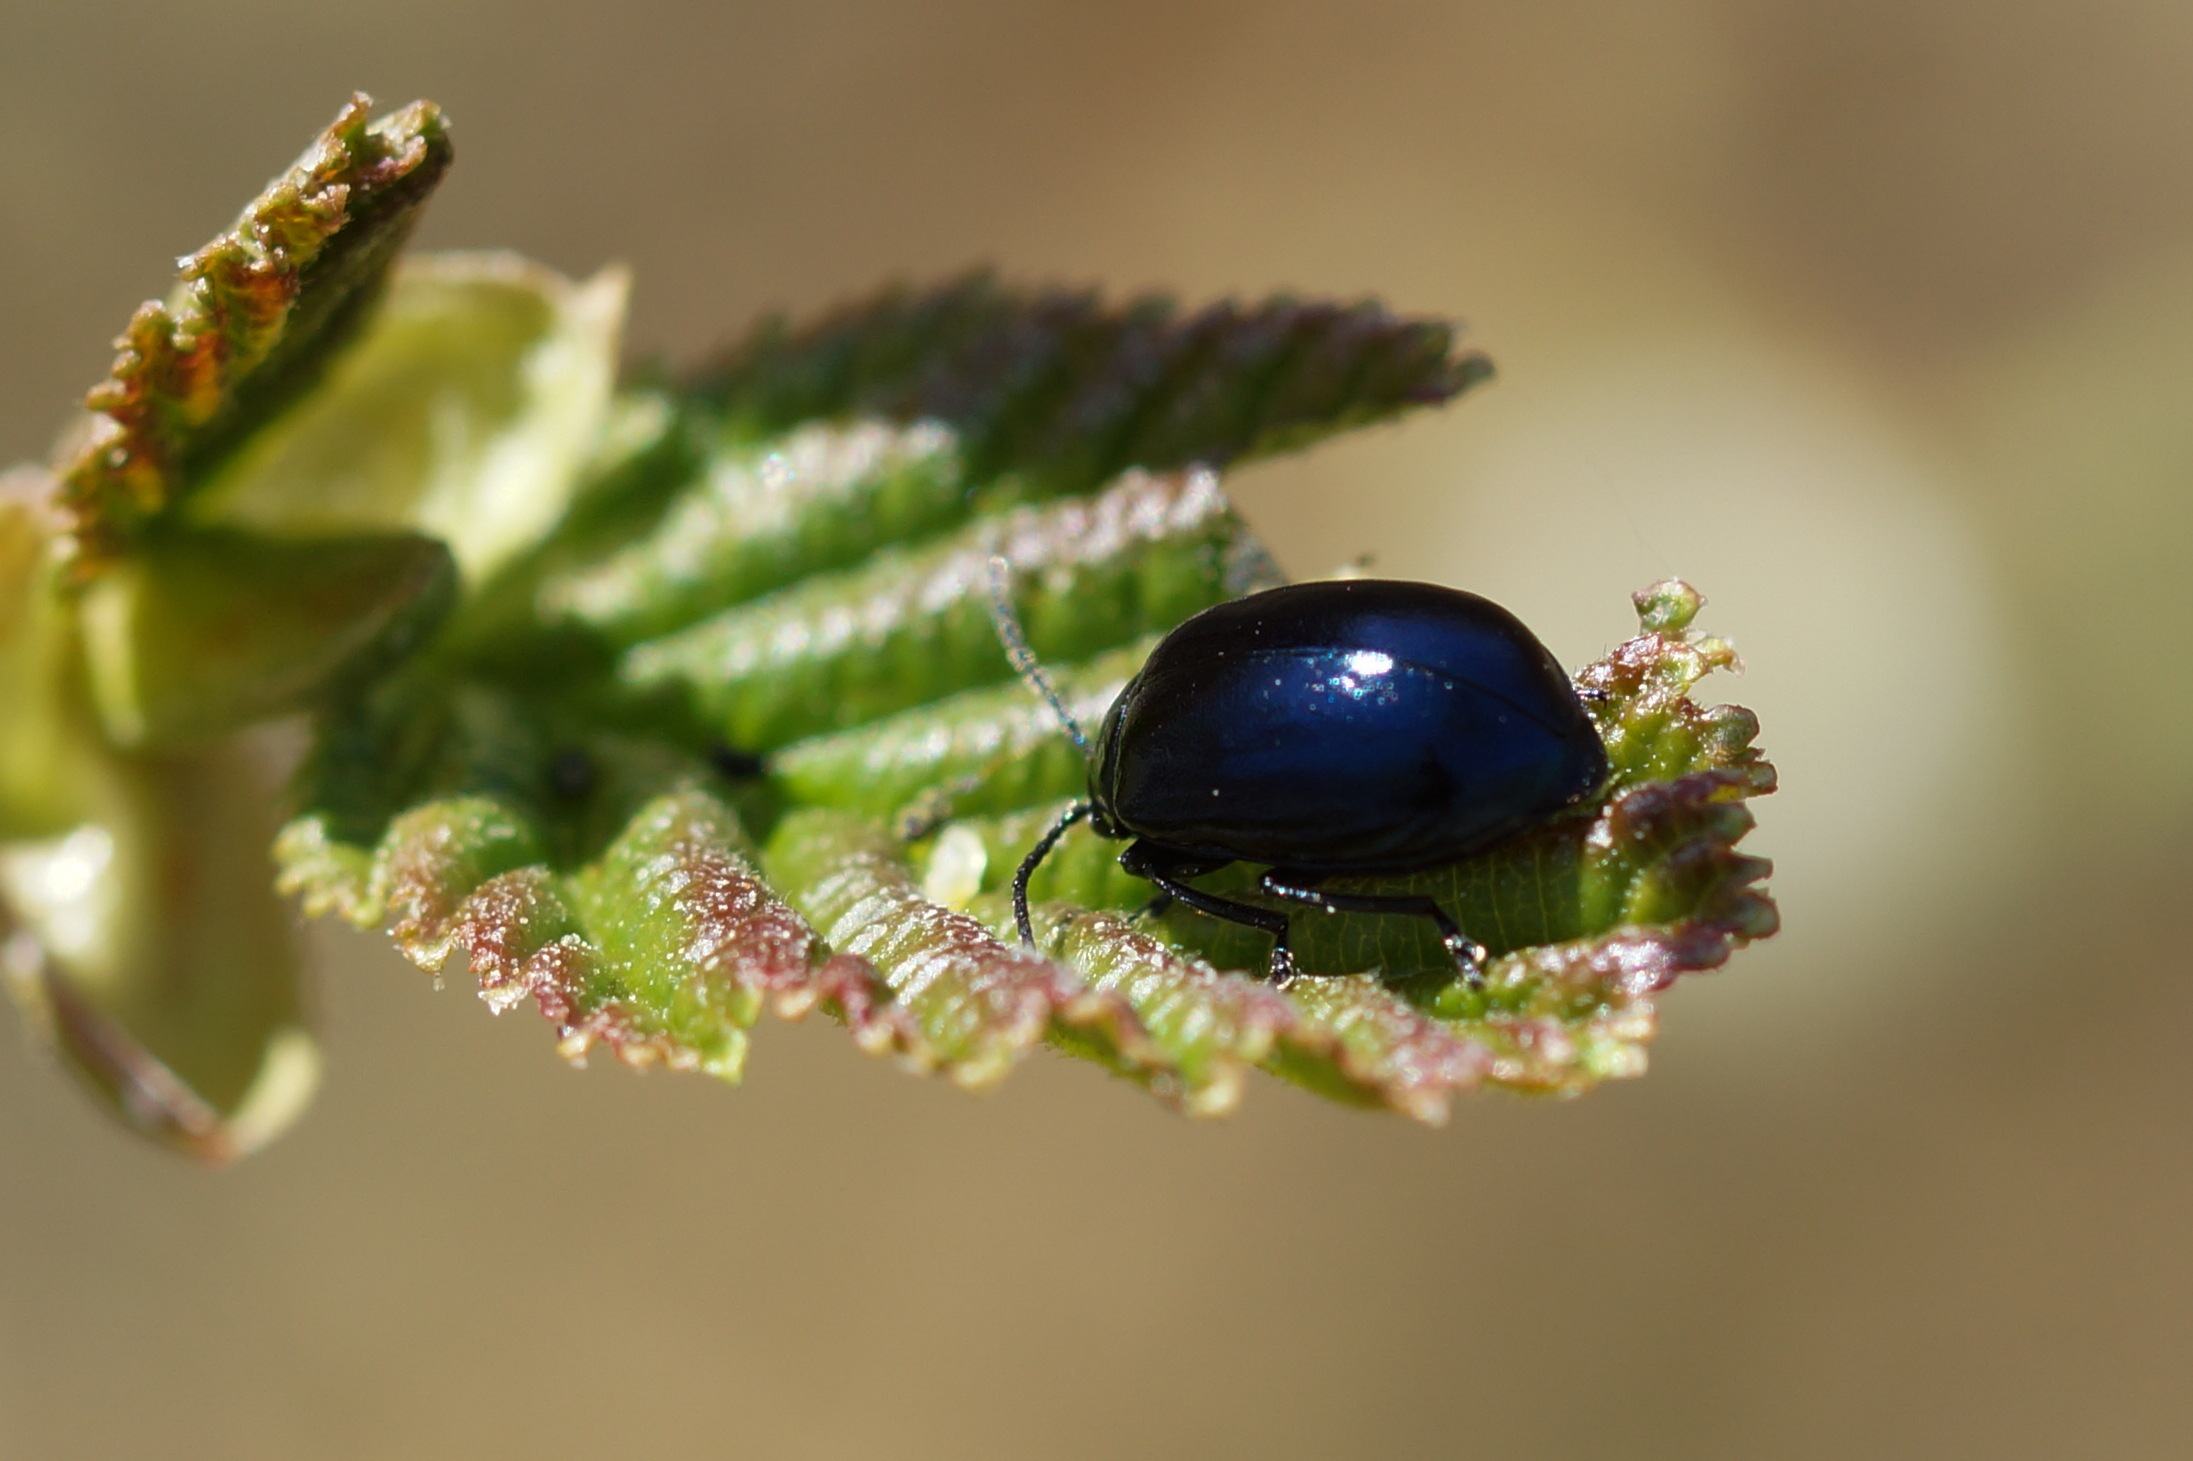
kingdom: Animalia
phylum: Arthropoda
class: Insecta
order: Coleoptera
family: Chrysomelidae
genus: Agelastica
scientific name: Agelastica alni
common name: Ellebladbille
